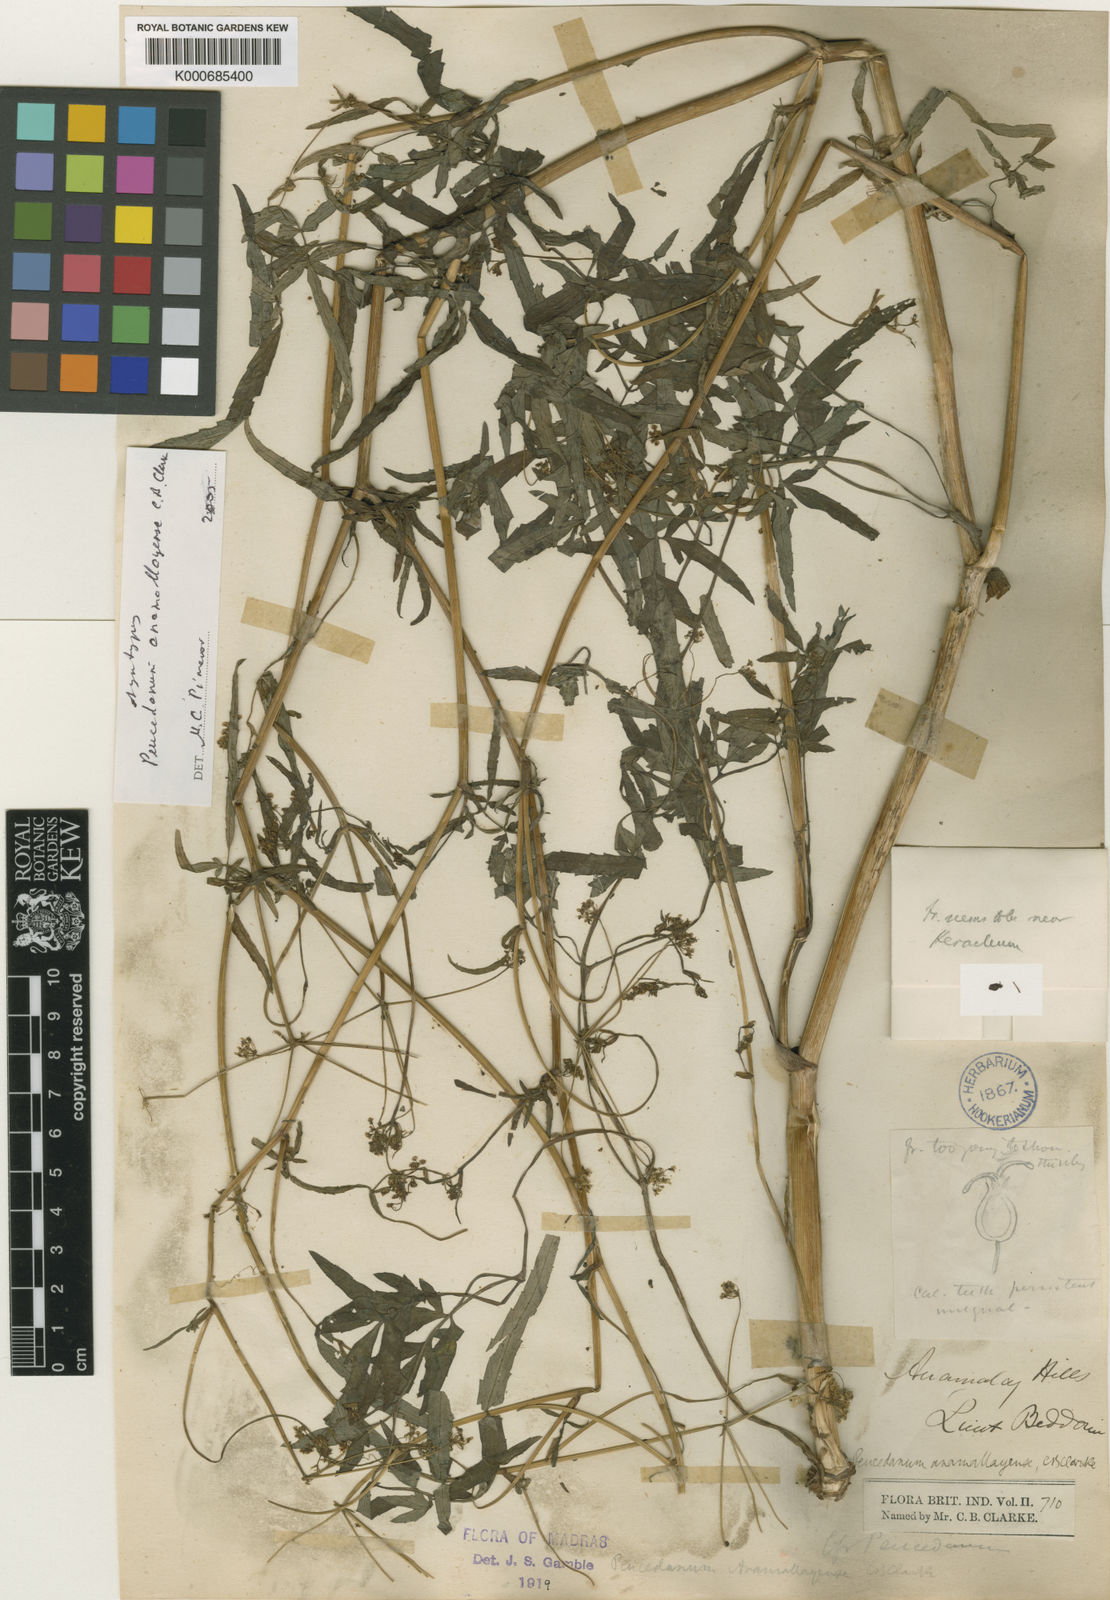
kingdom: Plantae
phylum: Tracheophyta
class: Magnoliopsida
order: Apiales
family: Apiaceae
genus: Peucedanum
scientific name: Peucedanum anamallayense
